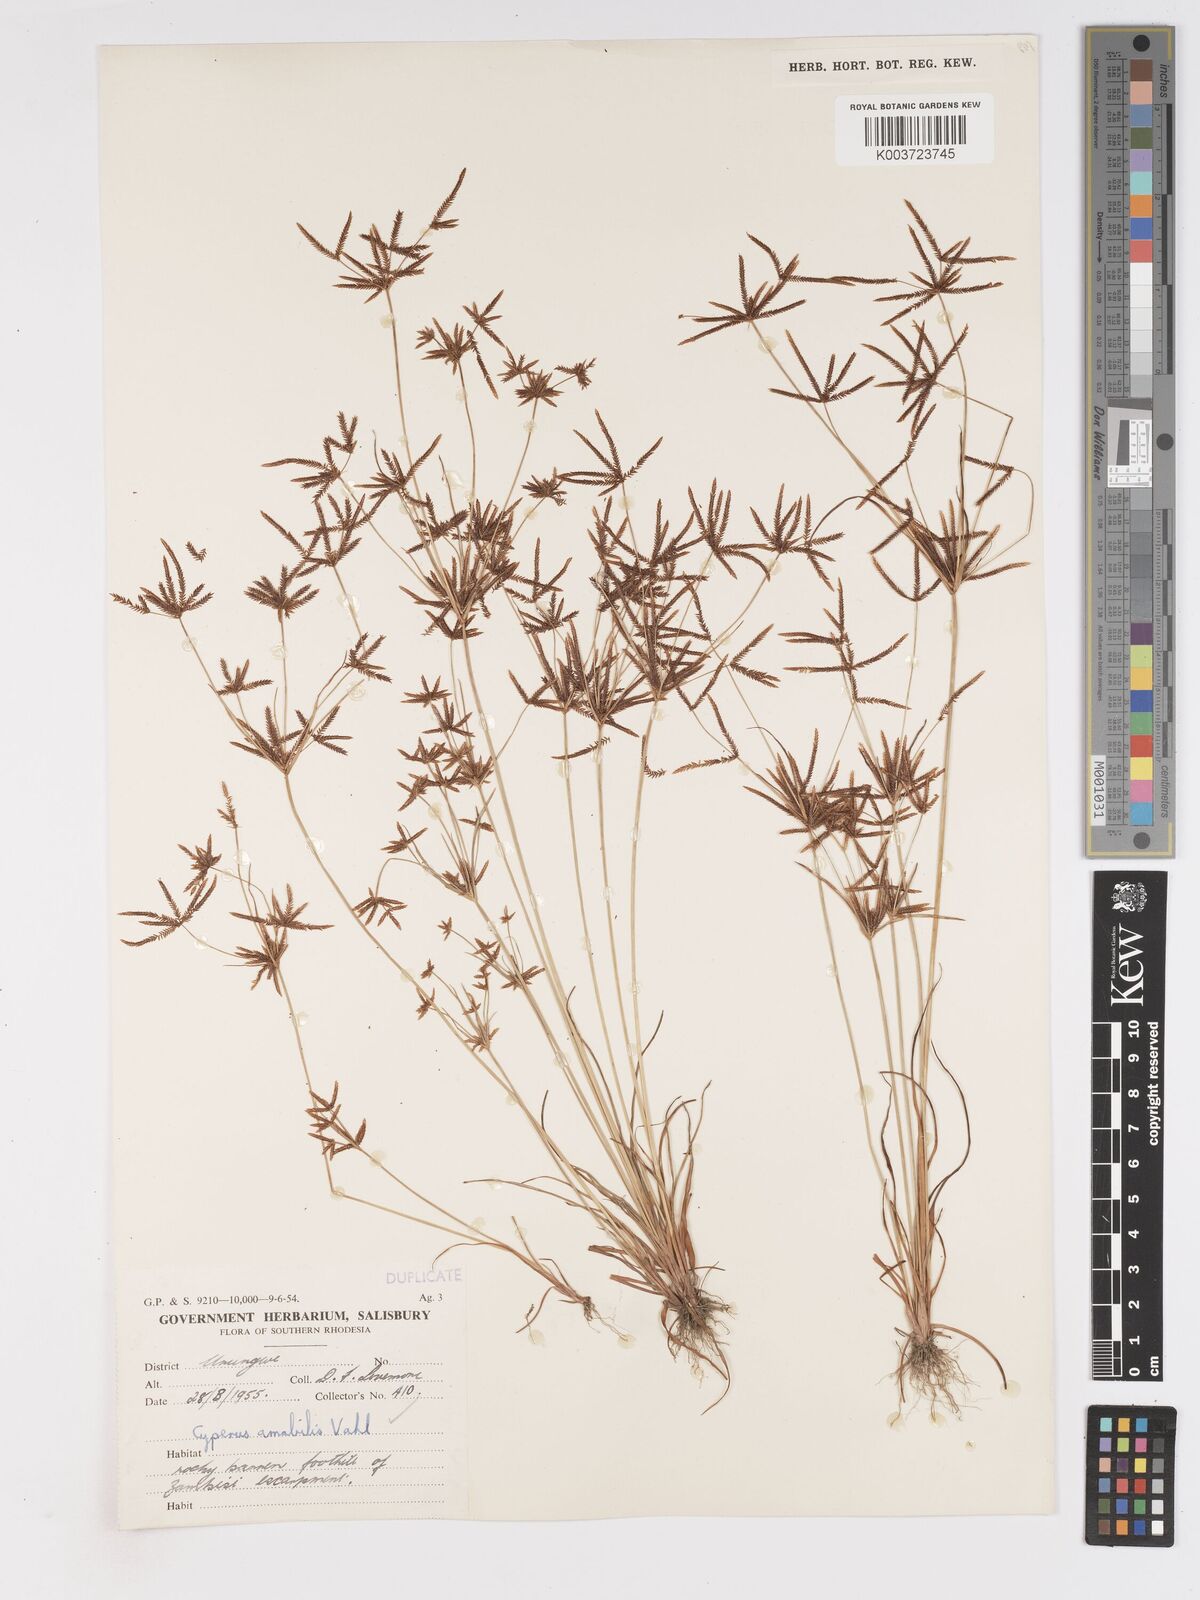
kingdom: Plantae
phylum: Tracheophyta
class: Liliopsida
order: Poales
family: Cyperaceae
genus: Cyperus
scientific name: Cyperus amabilis
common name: Foothill flat sedge
